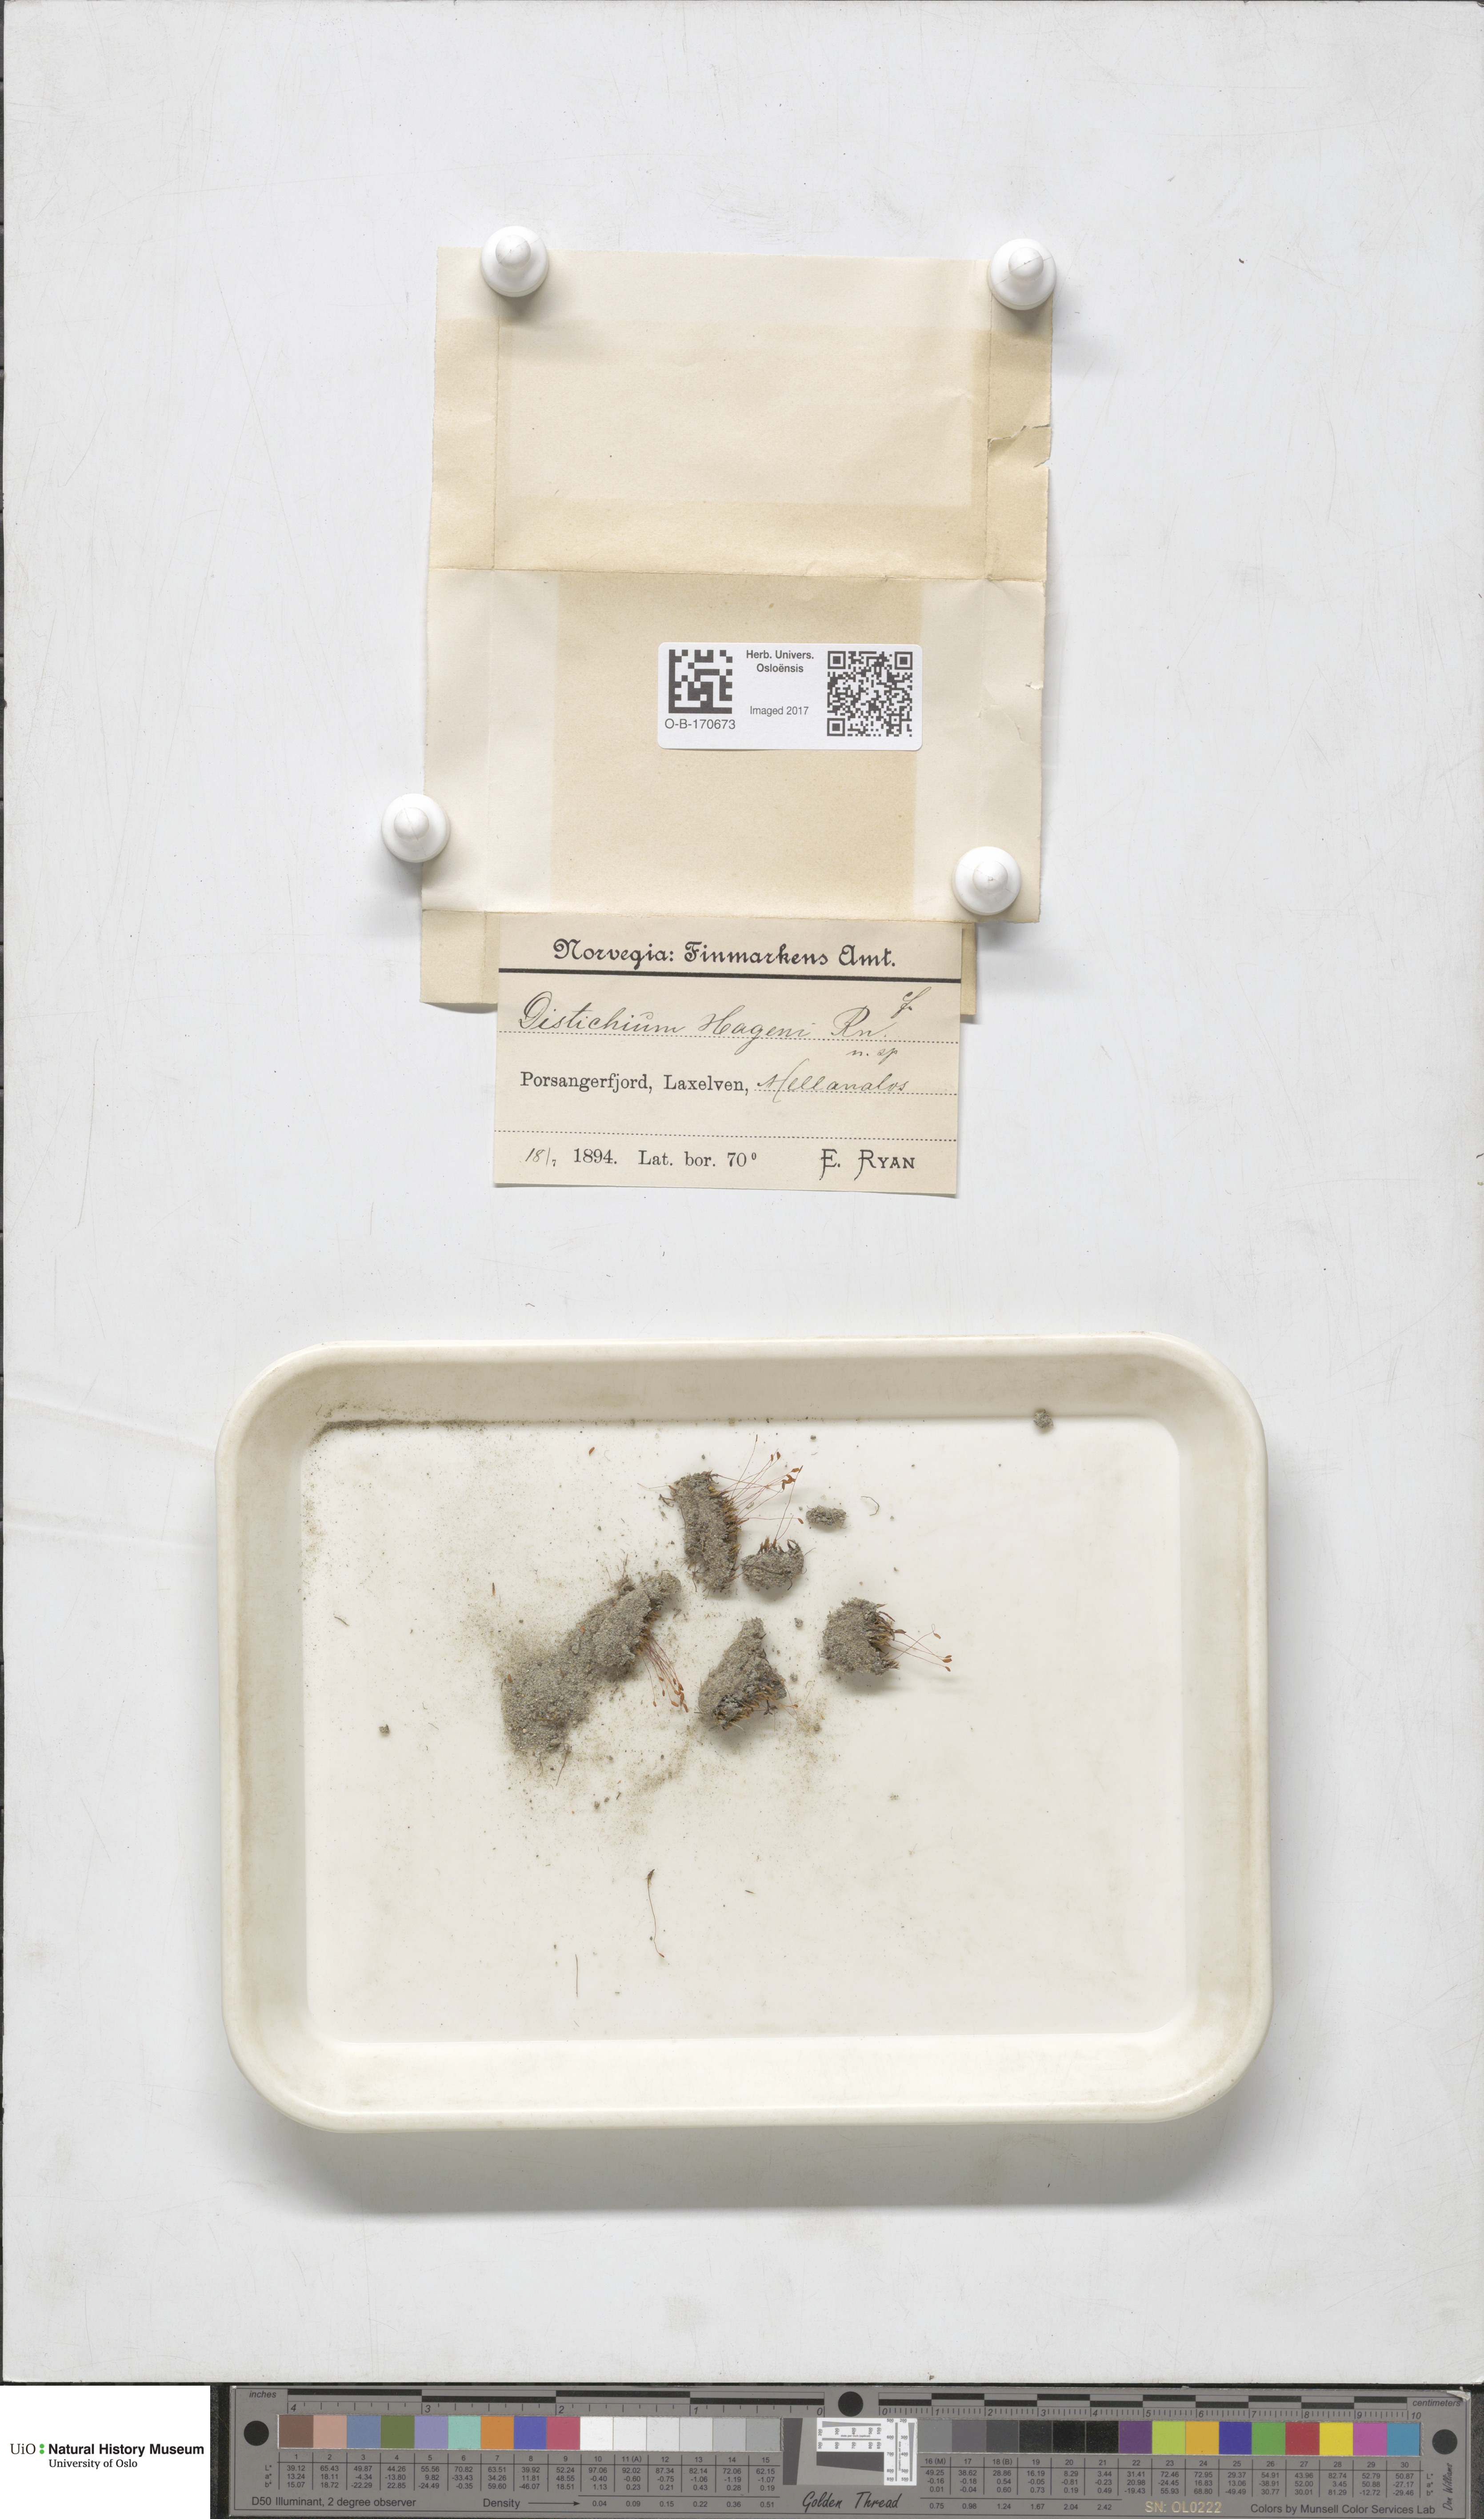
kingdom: Plantae
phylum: Bryophyta
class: Bryopsida
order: Scouleriales
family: Distichiaceae
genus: Distichium
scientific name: Distichium capillaceum
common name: Erect-fruited iris moss
